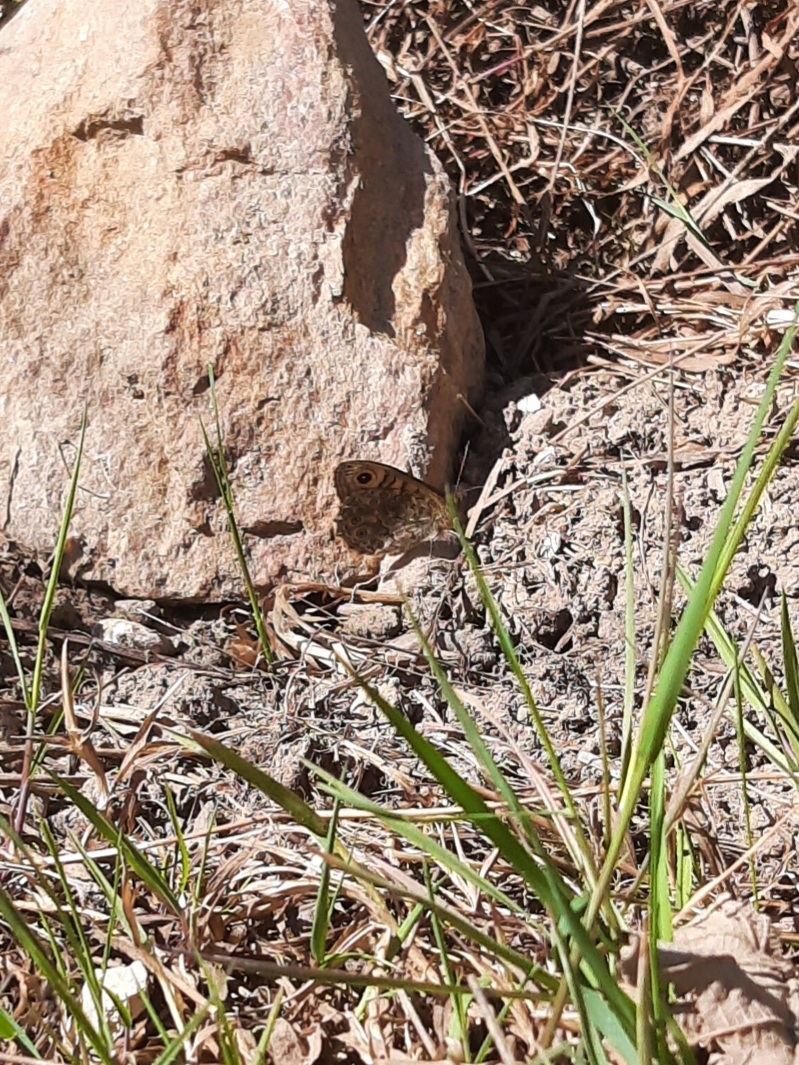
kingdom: Animalia
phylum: Arthropoda
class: Insecta
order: Lepidoptera
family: Nymphalidae
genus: Pararge
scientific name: Pararge Lasiommata megera
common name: Vejrandøje
